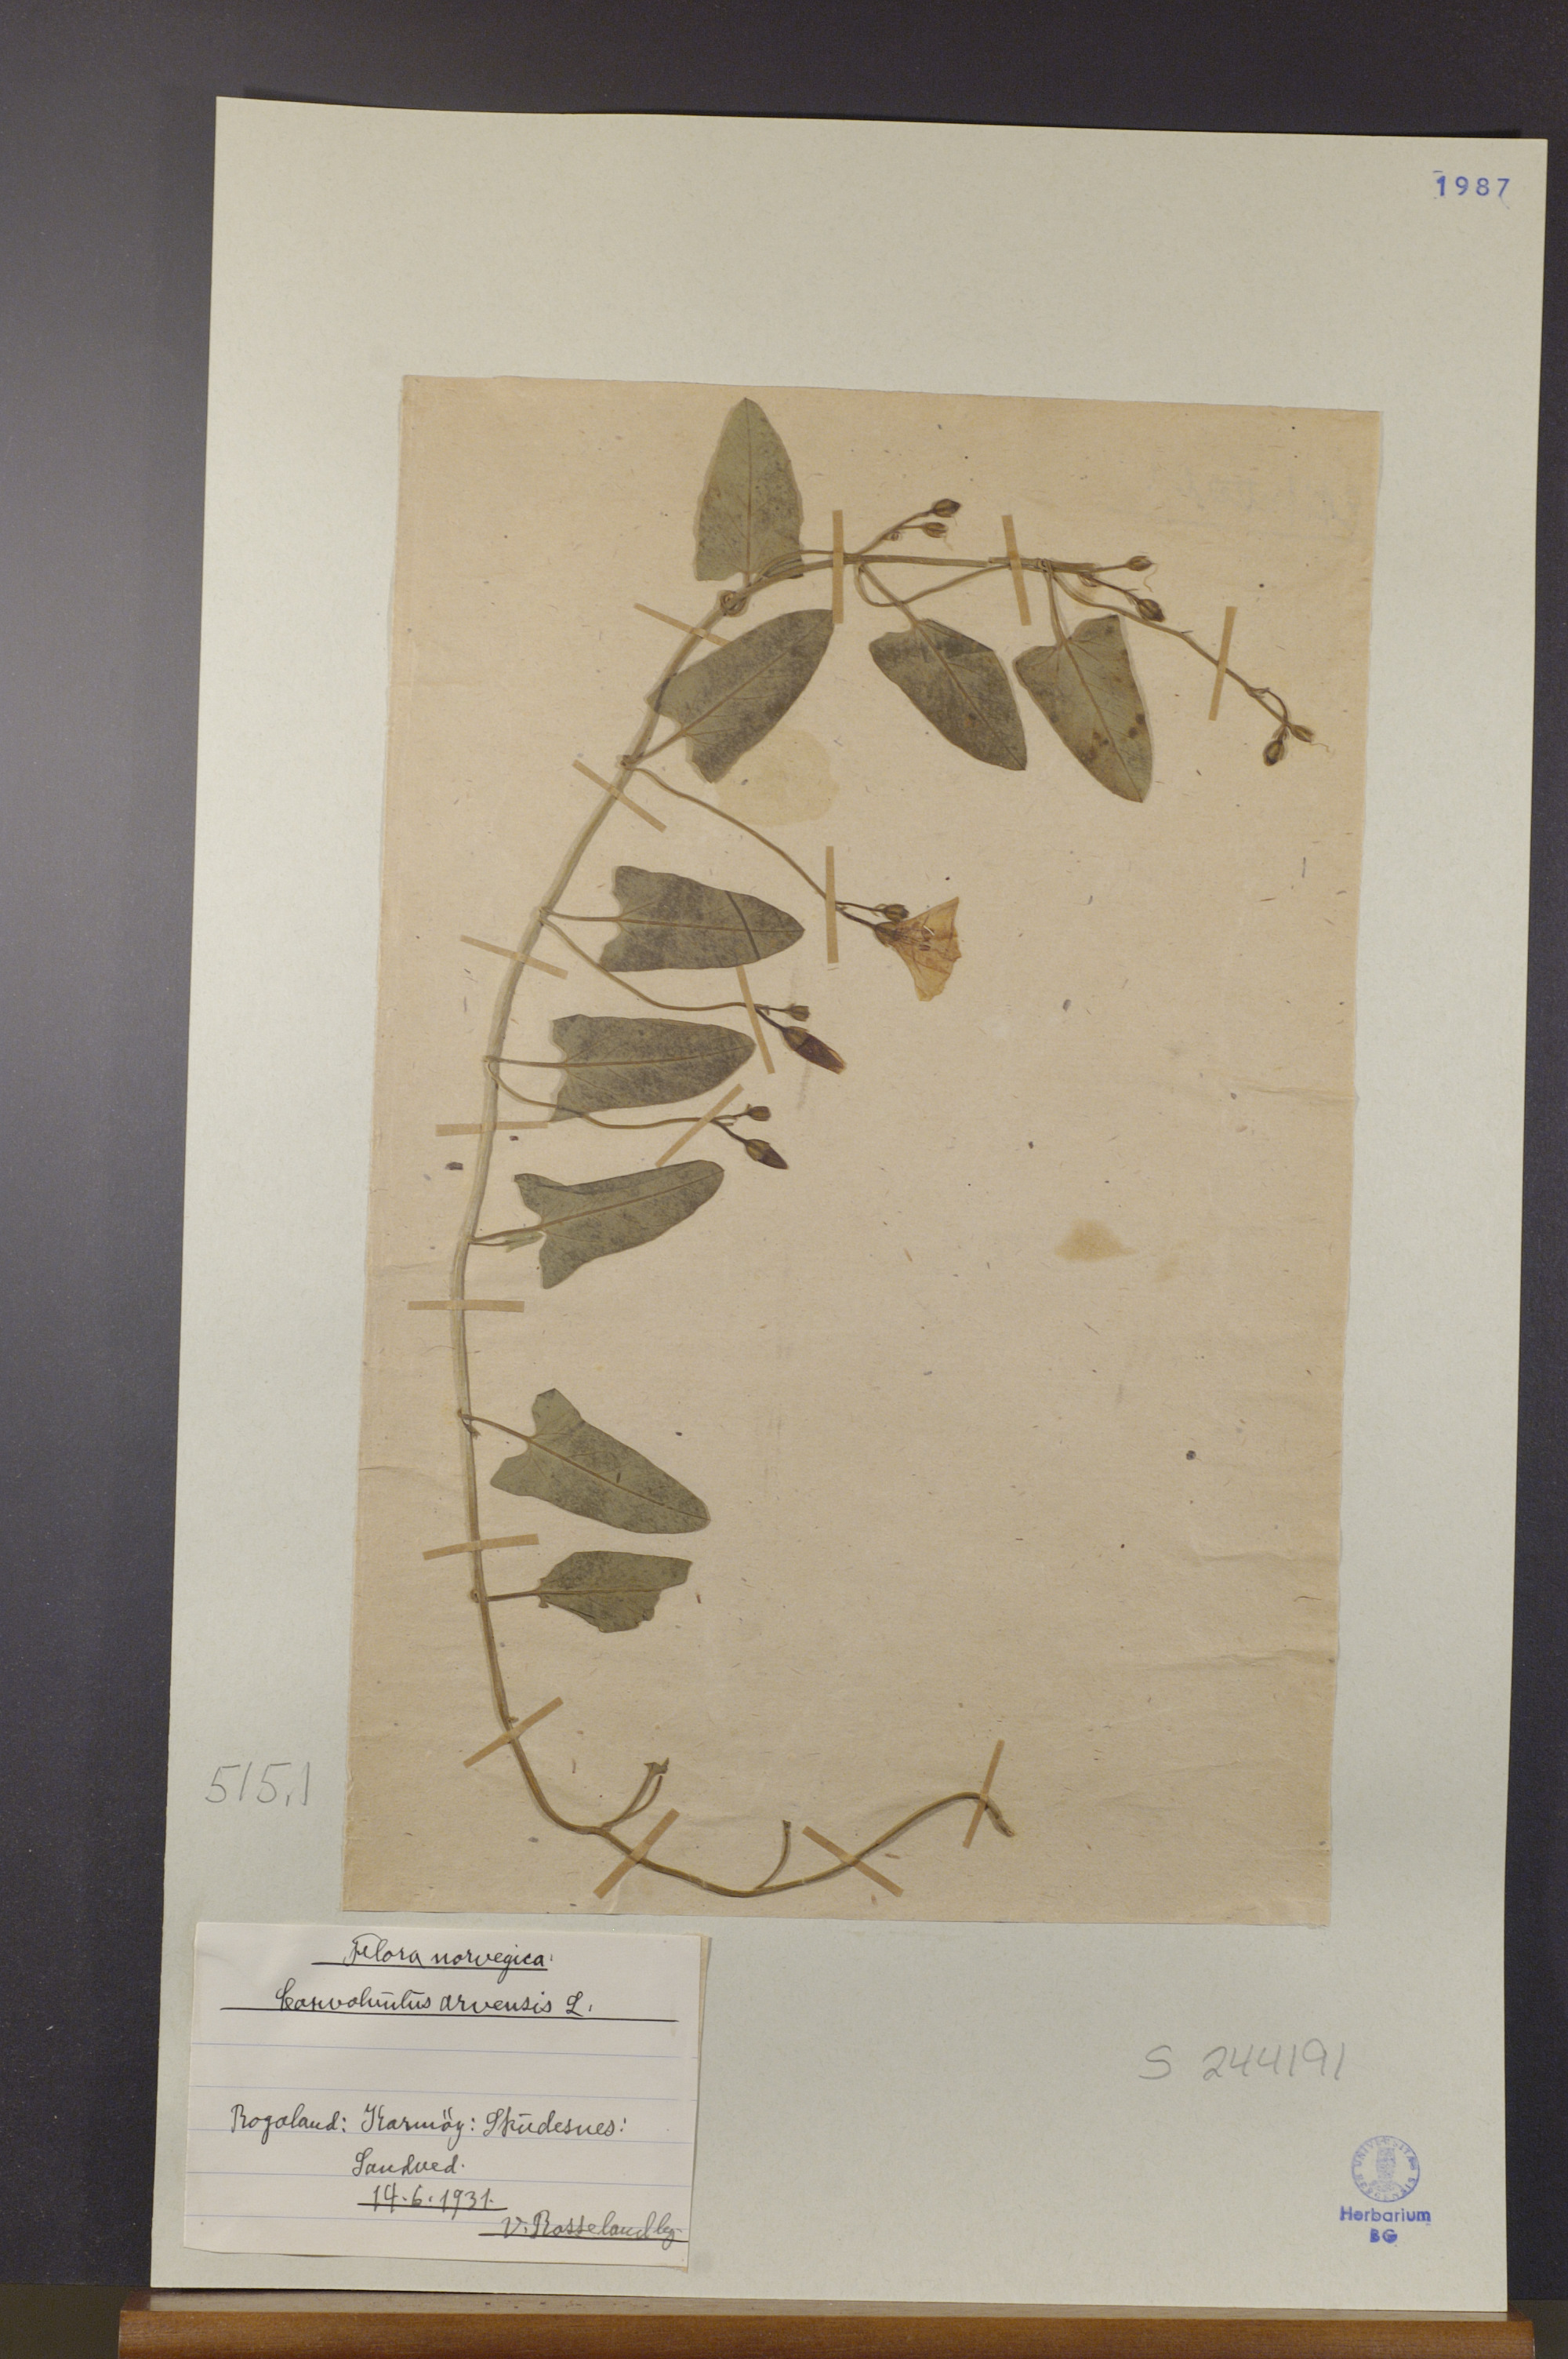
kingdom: Plantae
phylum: Tracheophyta
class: Magnoliopsida
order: Solanales
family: Convolvulaceae
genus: Convolvulus
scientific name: Convolvulus arvensis
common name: Field bindweed
